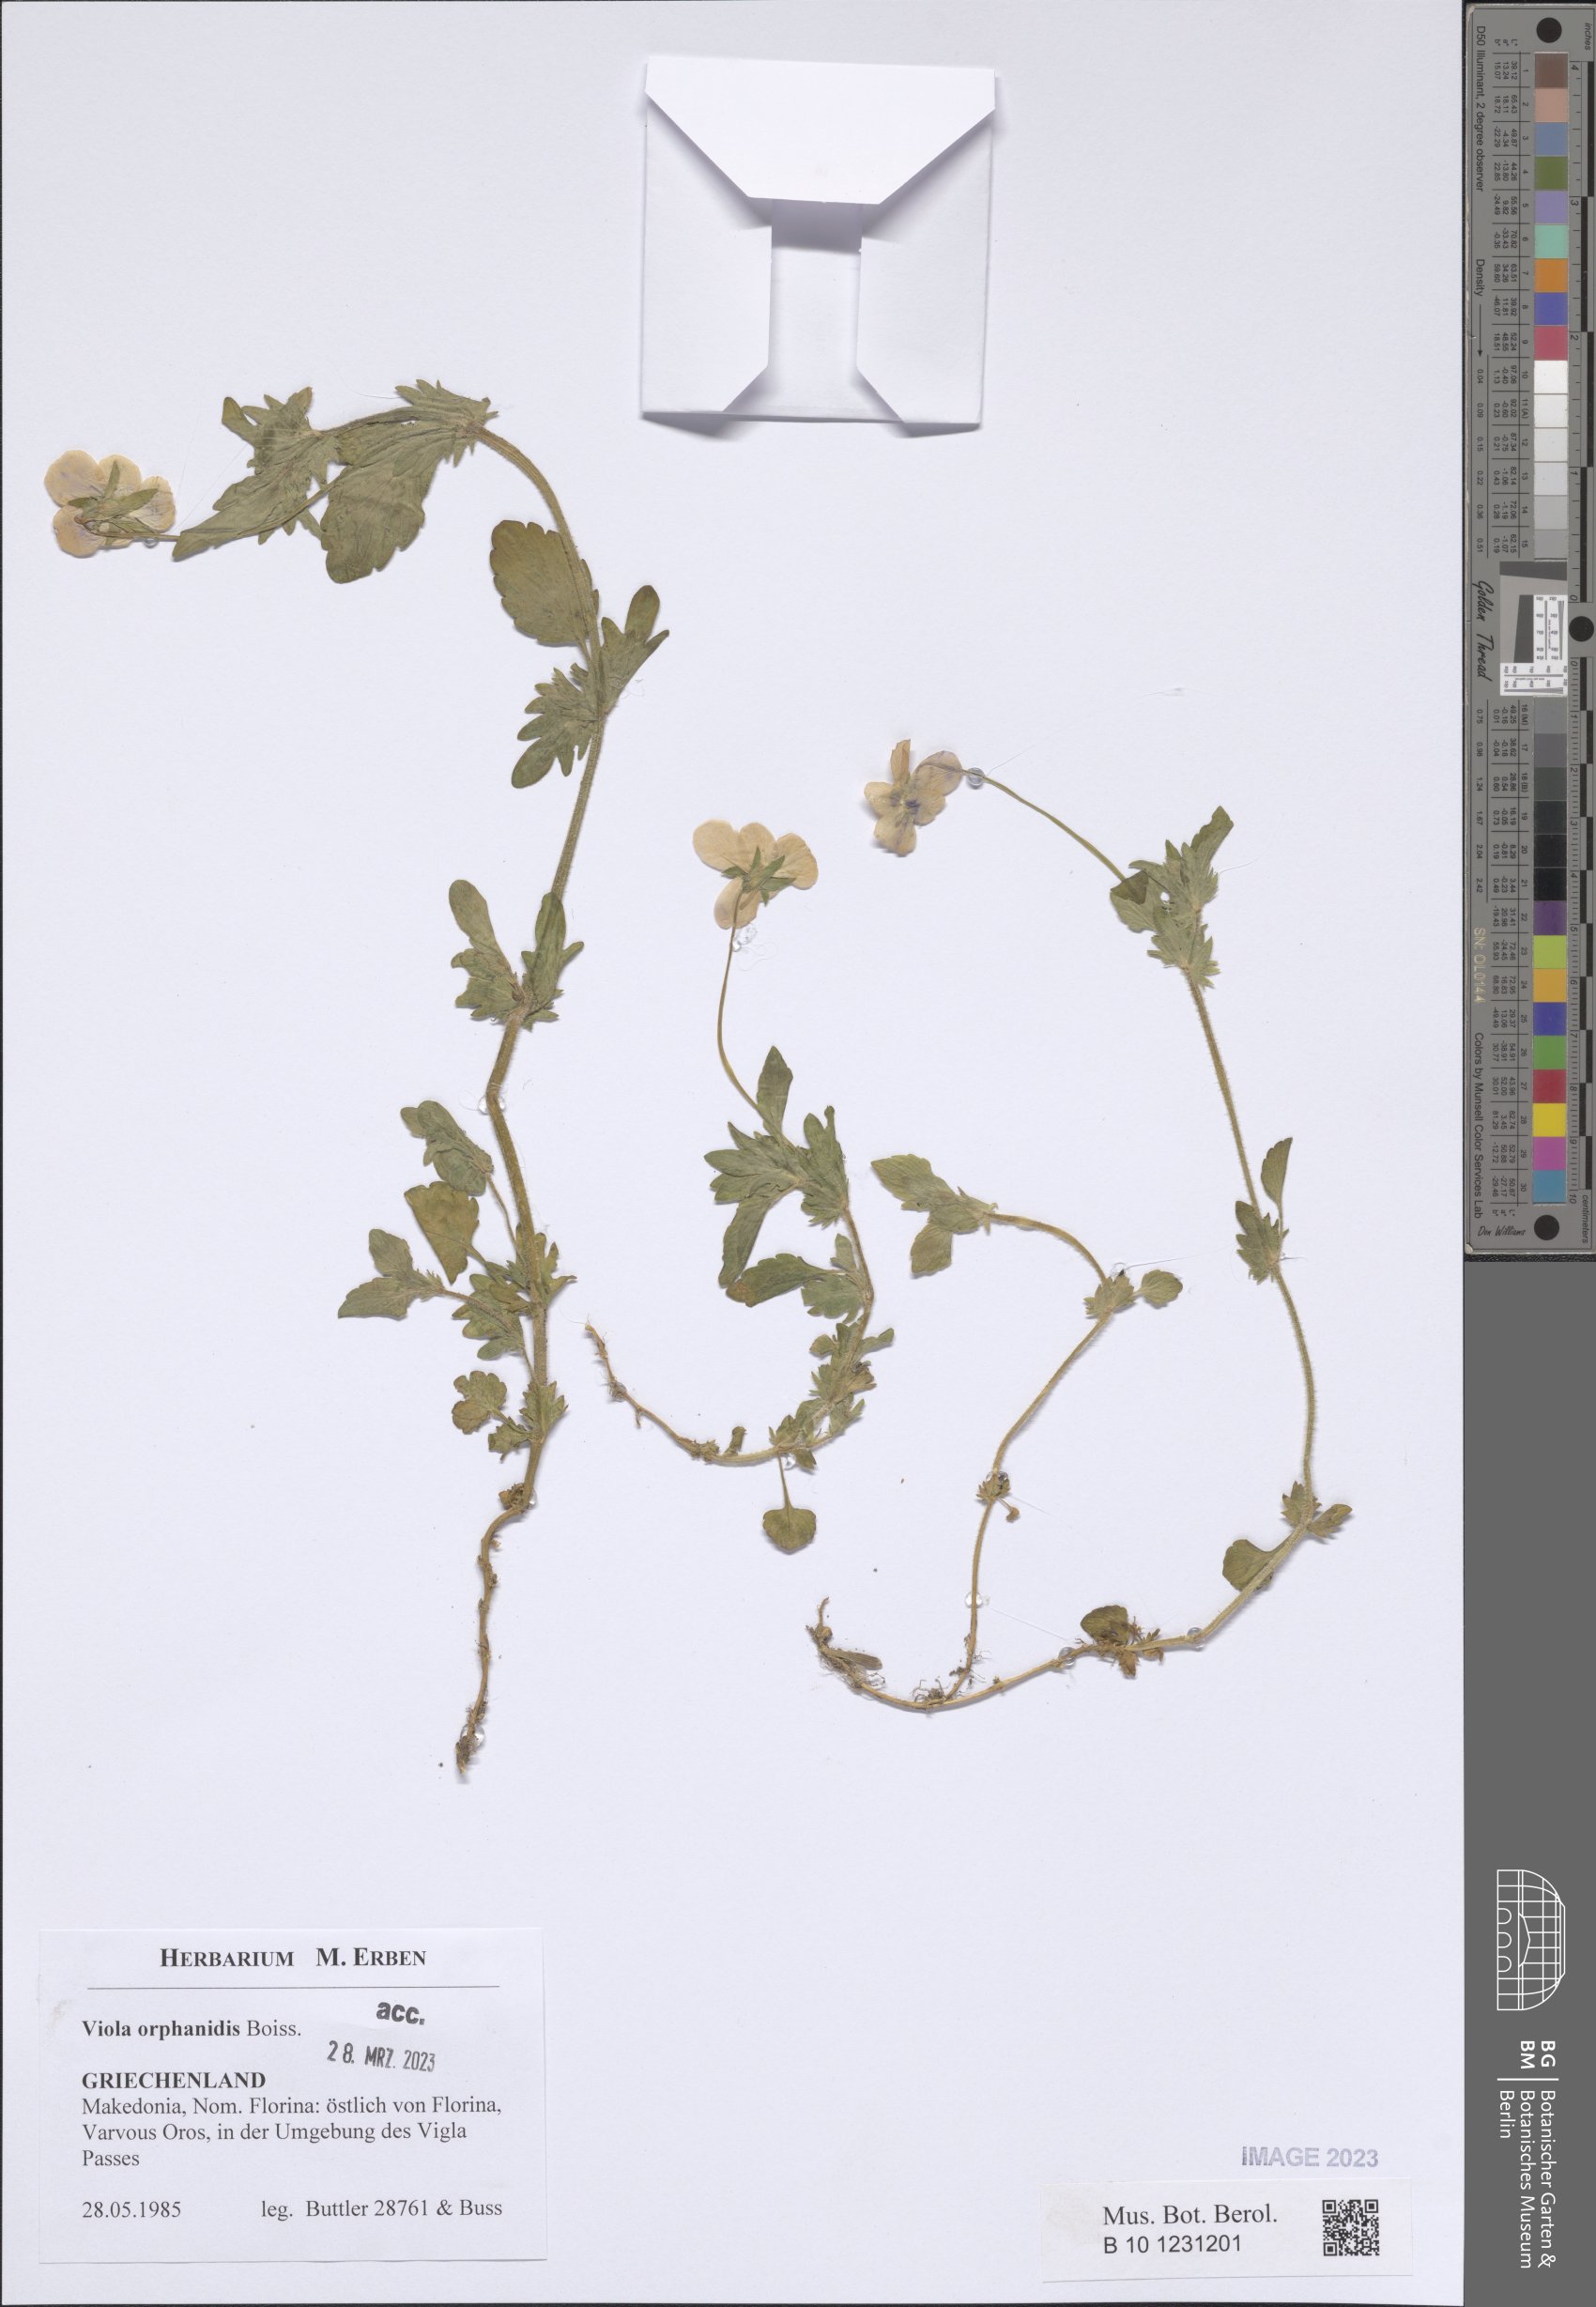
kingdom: Plantae
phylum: Tracheophyta
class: Magnoliopsida
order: Malpighiales
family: Violaceae
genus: Viola
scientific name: Viola orphanidis
